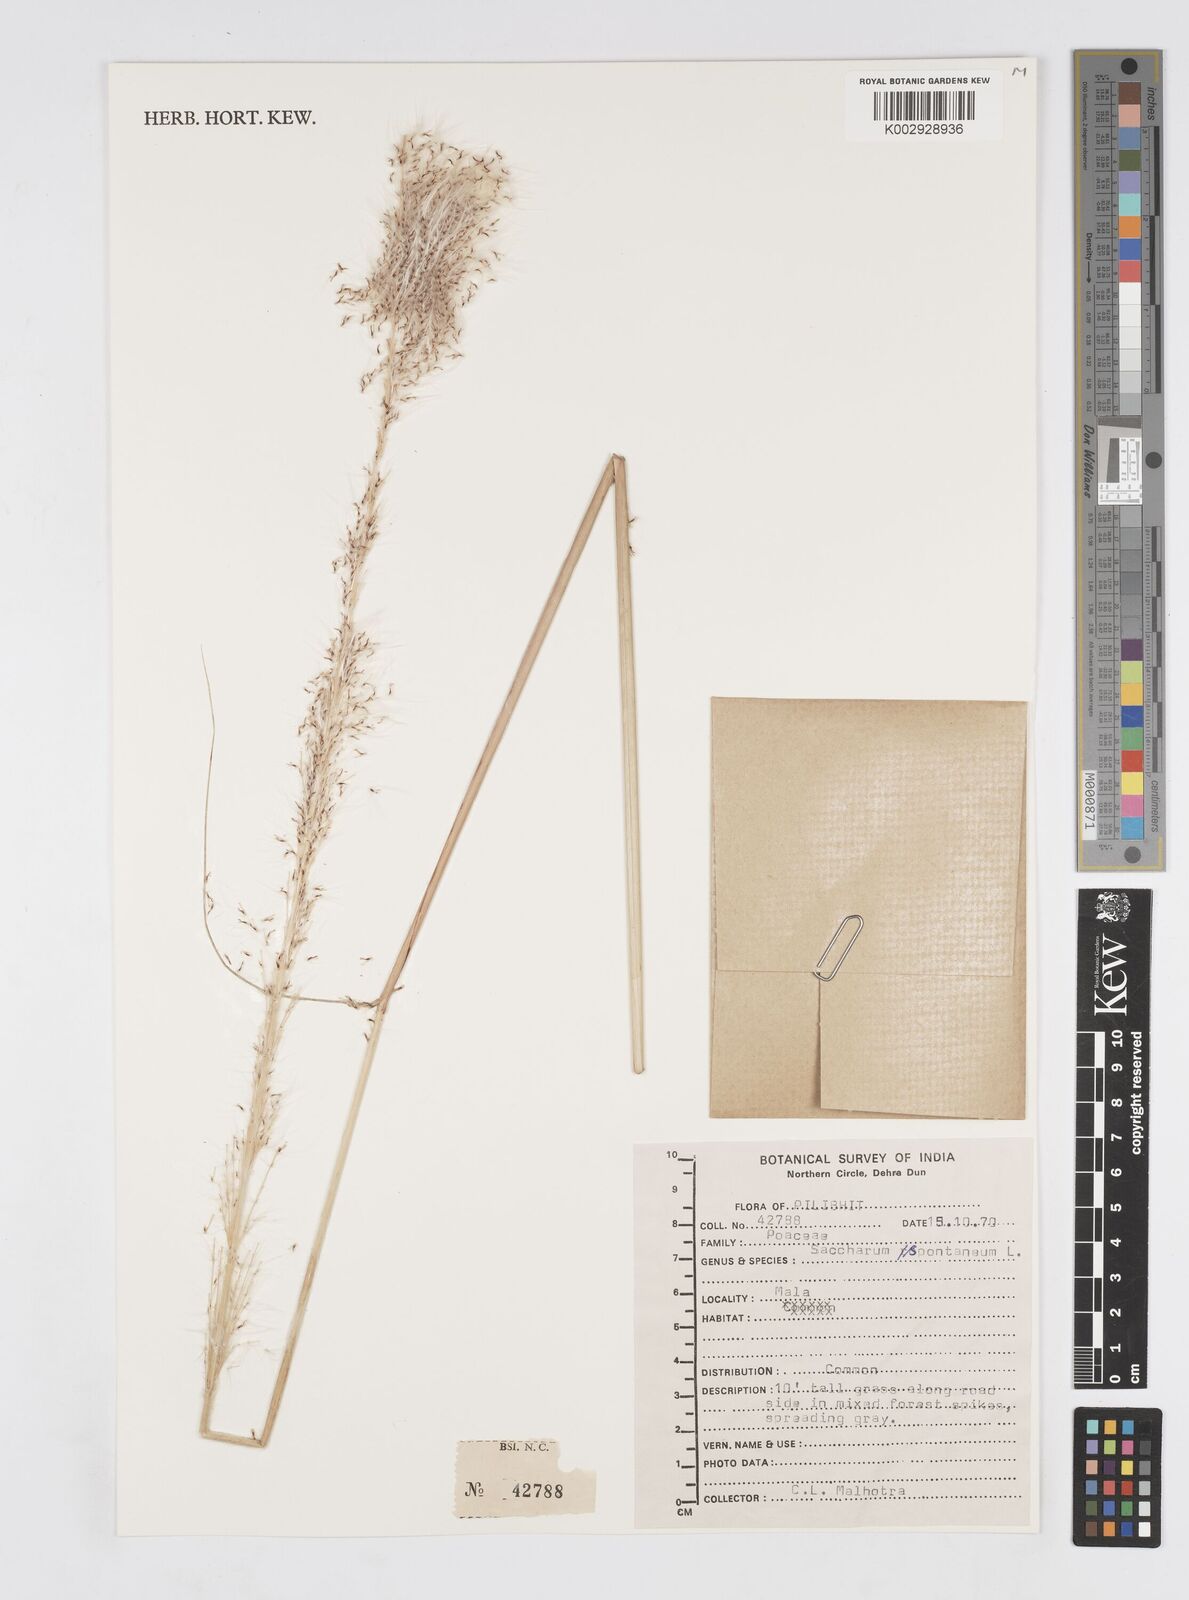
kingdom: Plantae
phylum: Tracheophyta
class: Liliopsida
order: Poales
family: Poaceae
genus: Saccharum
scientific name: Saccharum spontaneum
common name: Wild sugarcane
